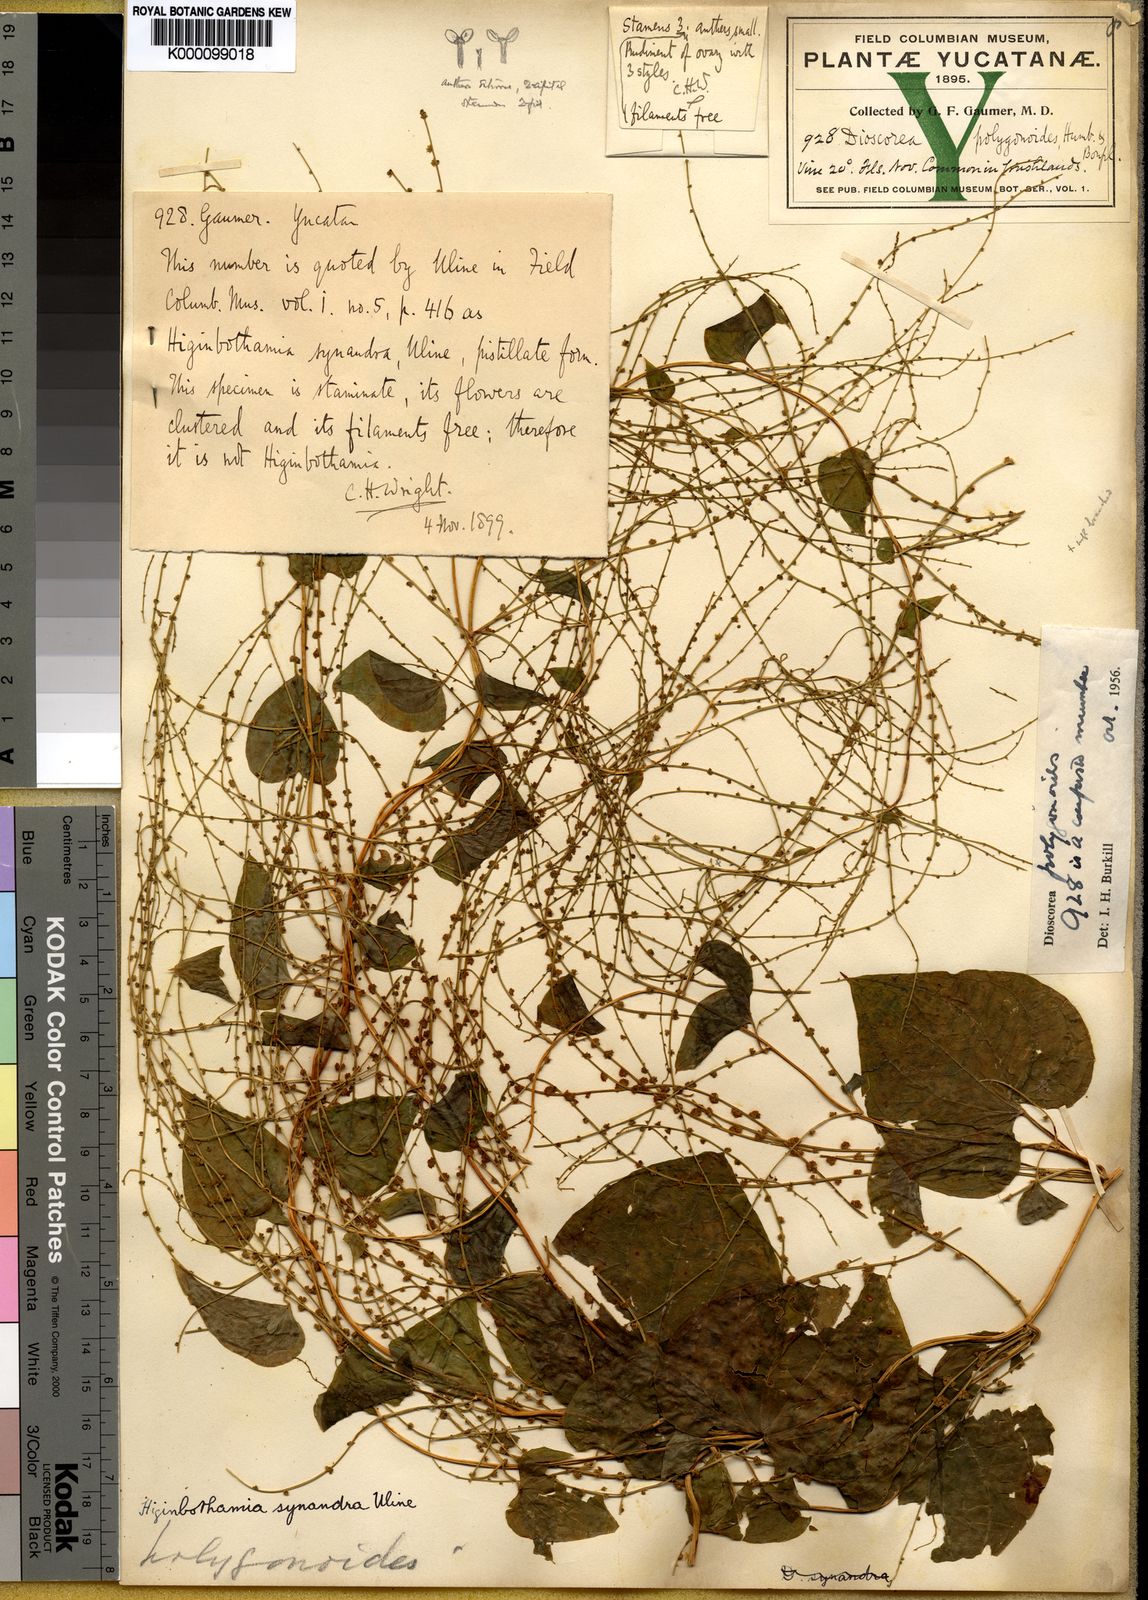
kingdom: Plantae
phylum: Tracheophyta
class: Liliopsida
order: Dioscoreales
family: Dioscoreaceae
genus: Dioscorea
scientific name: Dioscorea polygonoides
